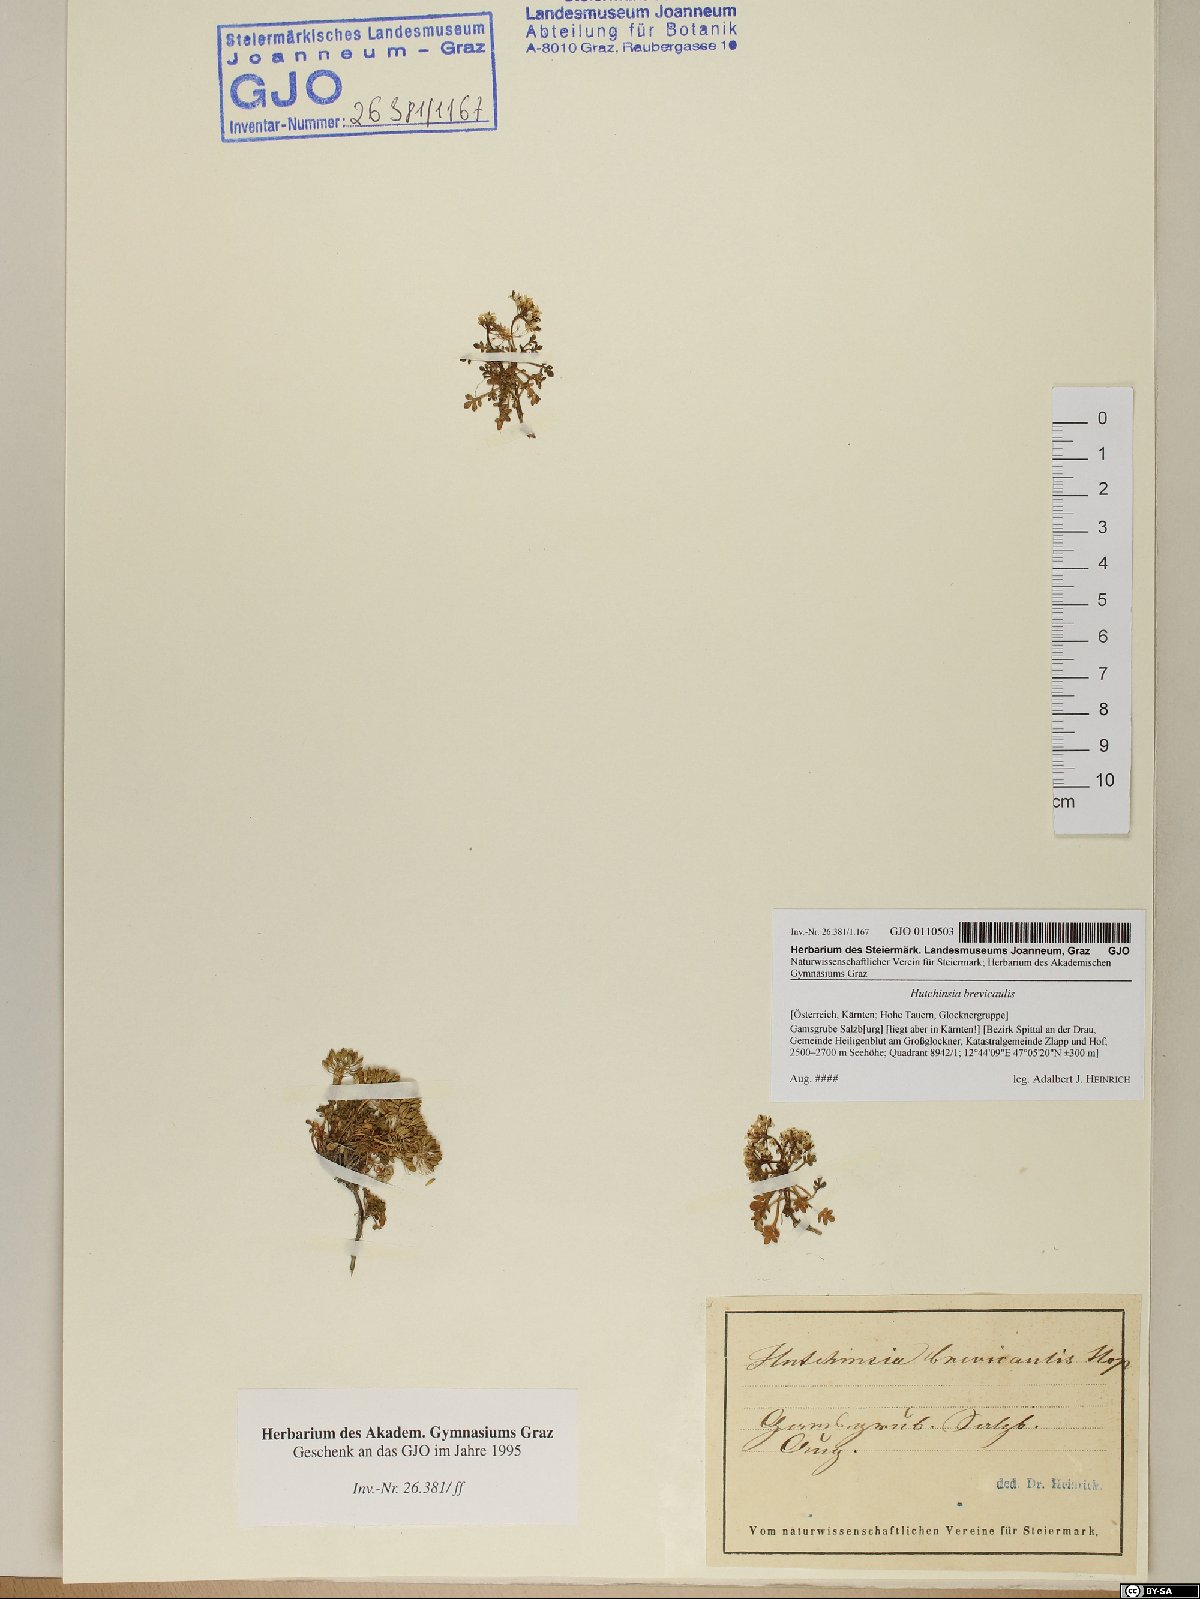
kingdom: Plantae
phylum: Tracheophyta
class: Magnoliopsida
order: Brassicales
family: Brassicaceae
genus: Hornungia
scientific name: Hornungia alpina
